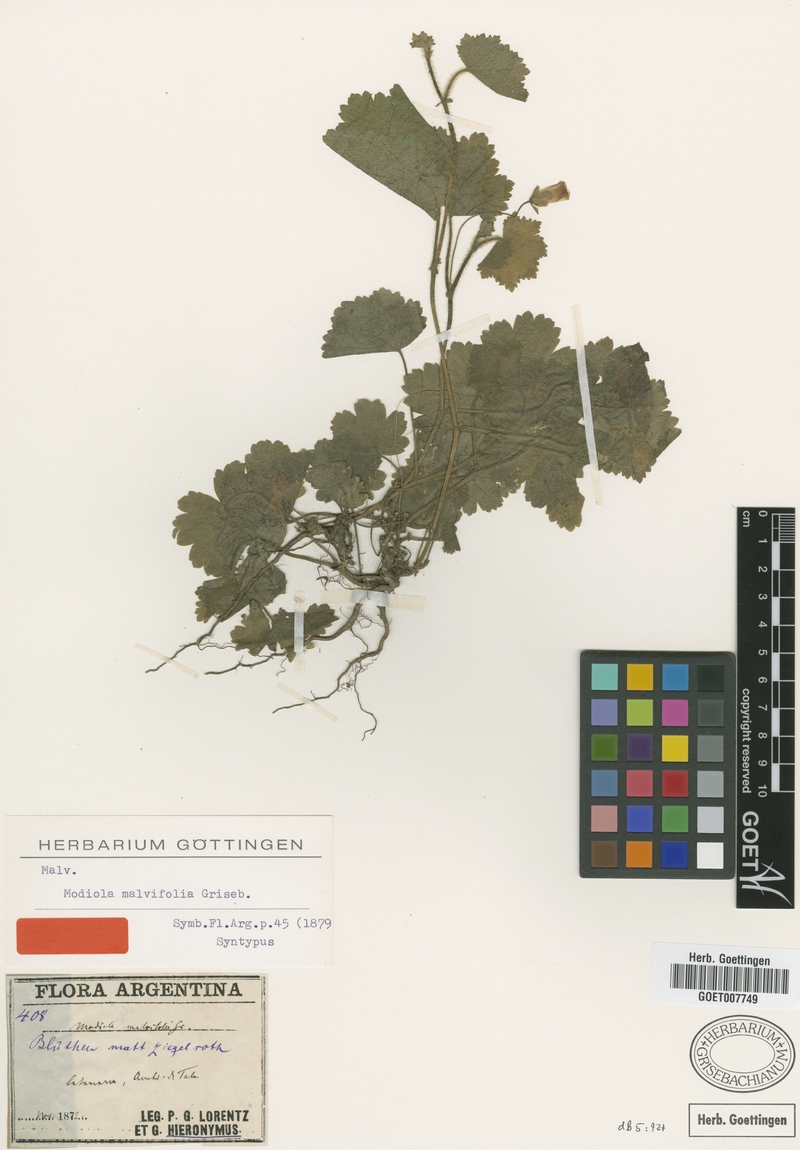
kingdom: Plantae
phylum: Tracheophyta
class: Magnoliopsida
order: Malvales
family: Malvaceae
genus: Modiolastrum
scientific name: Modiolastrum malvifolium
